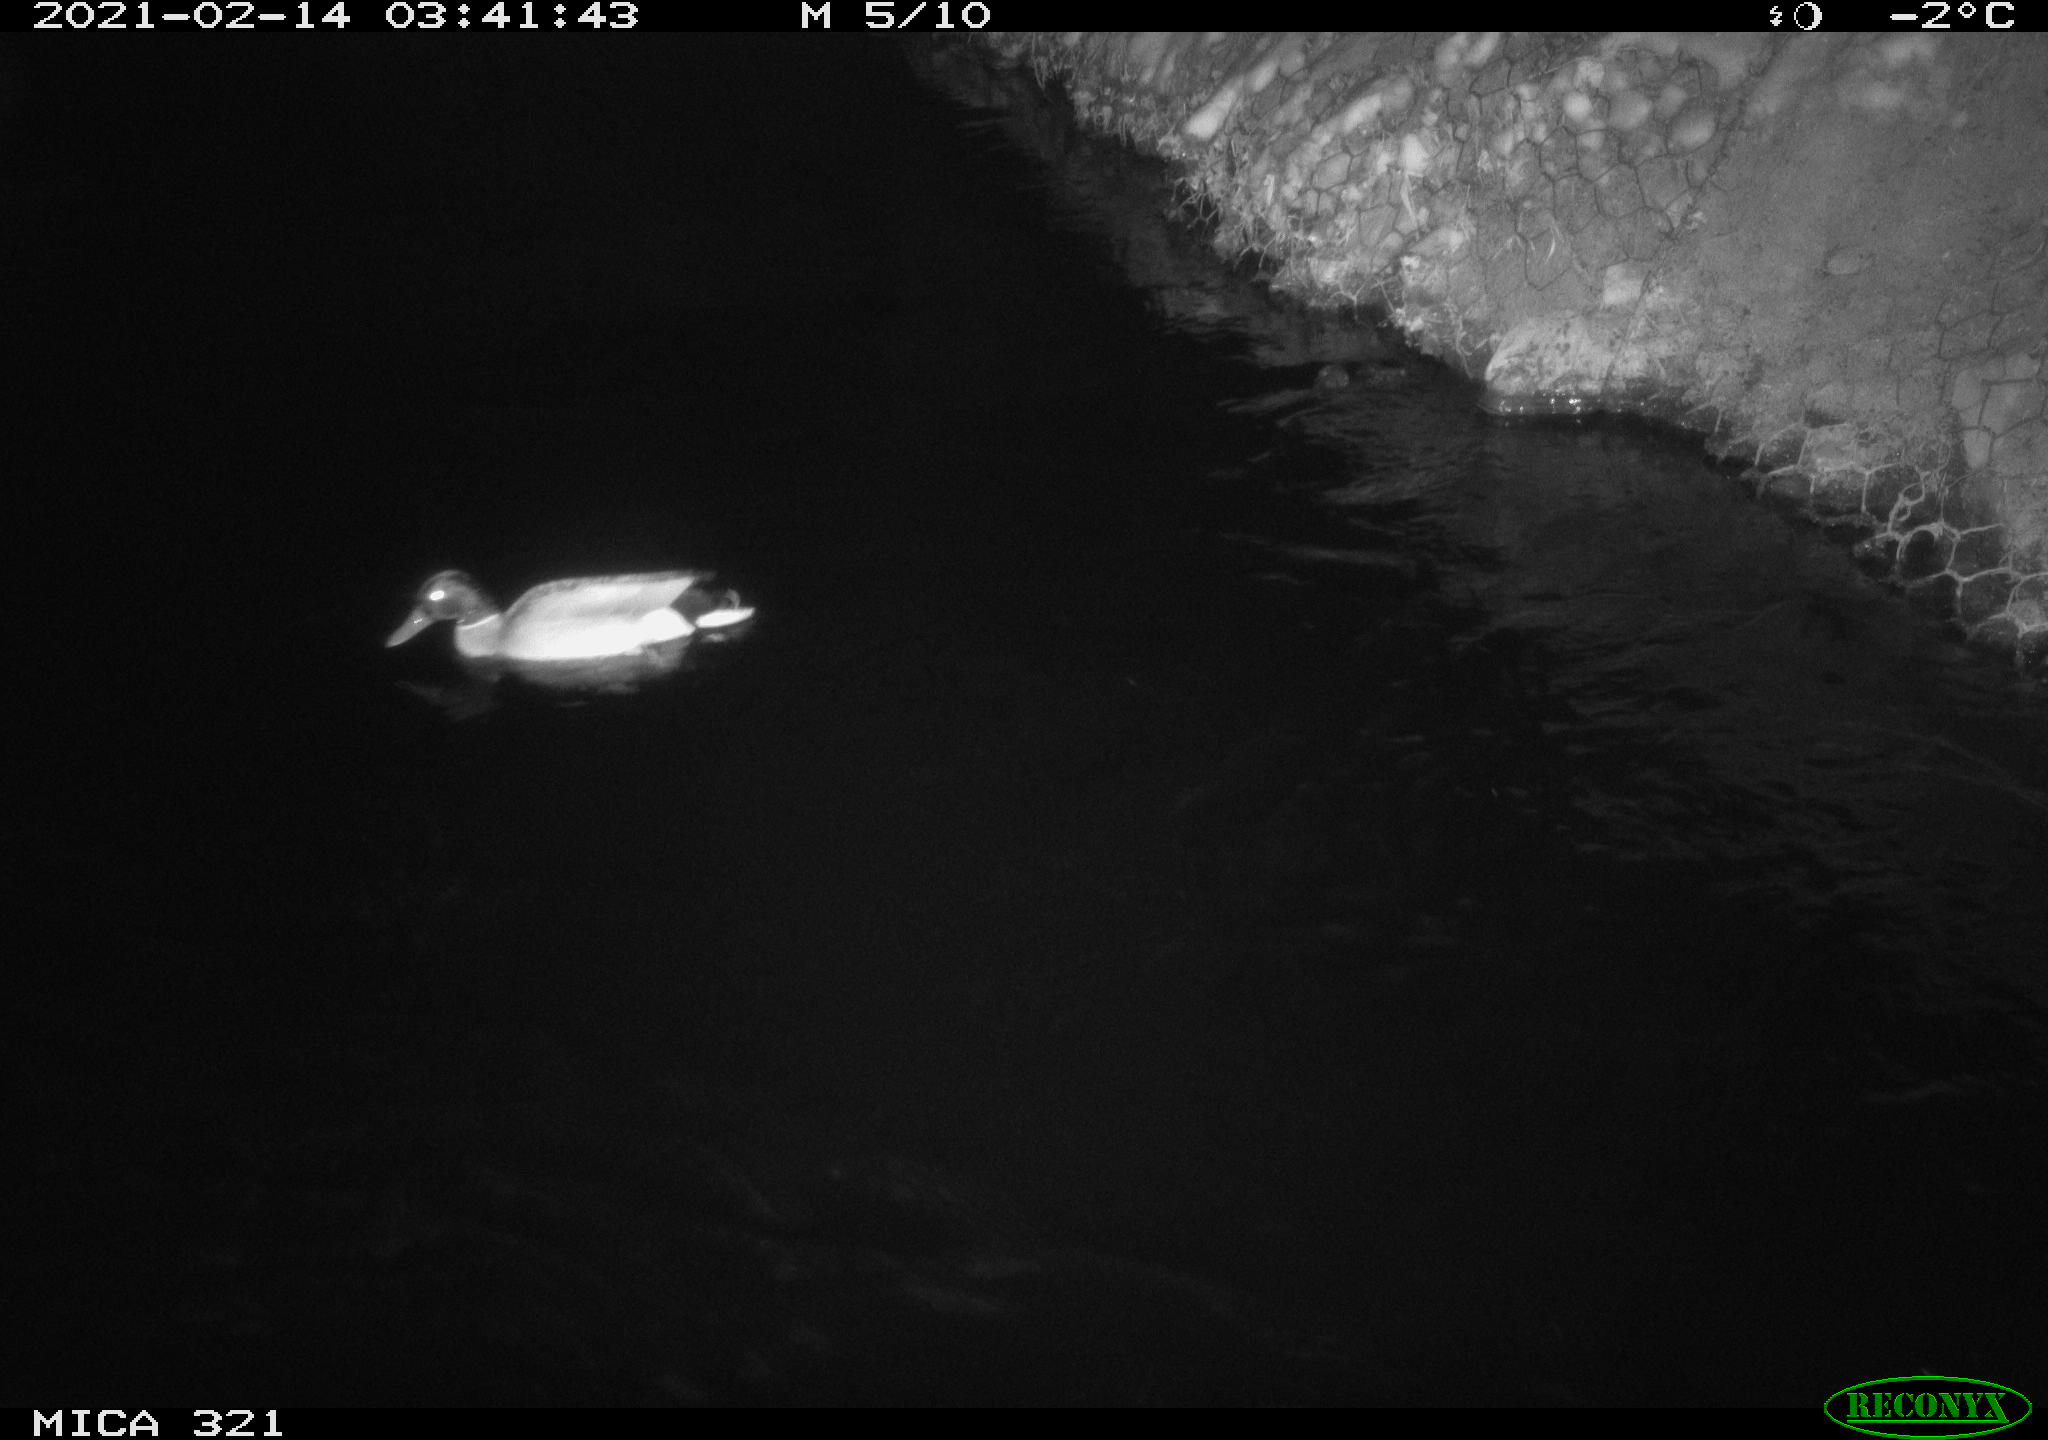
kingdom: Animalia
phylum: Chordata
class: Aves
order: Anseriformes
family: Anatidae
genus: Anas
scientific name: Anas platyrhynchos
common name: Mallard
